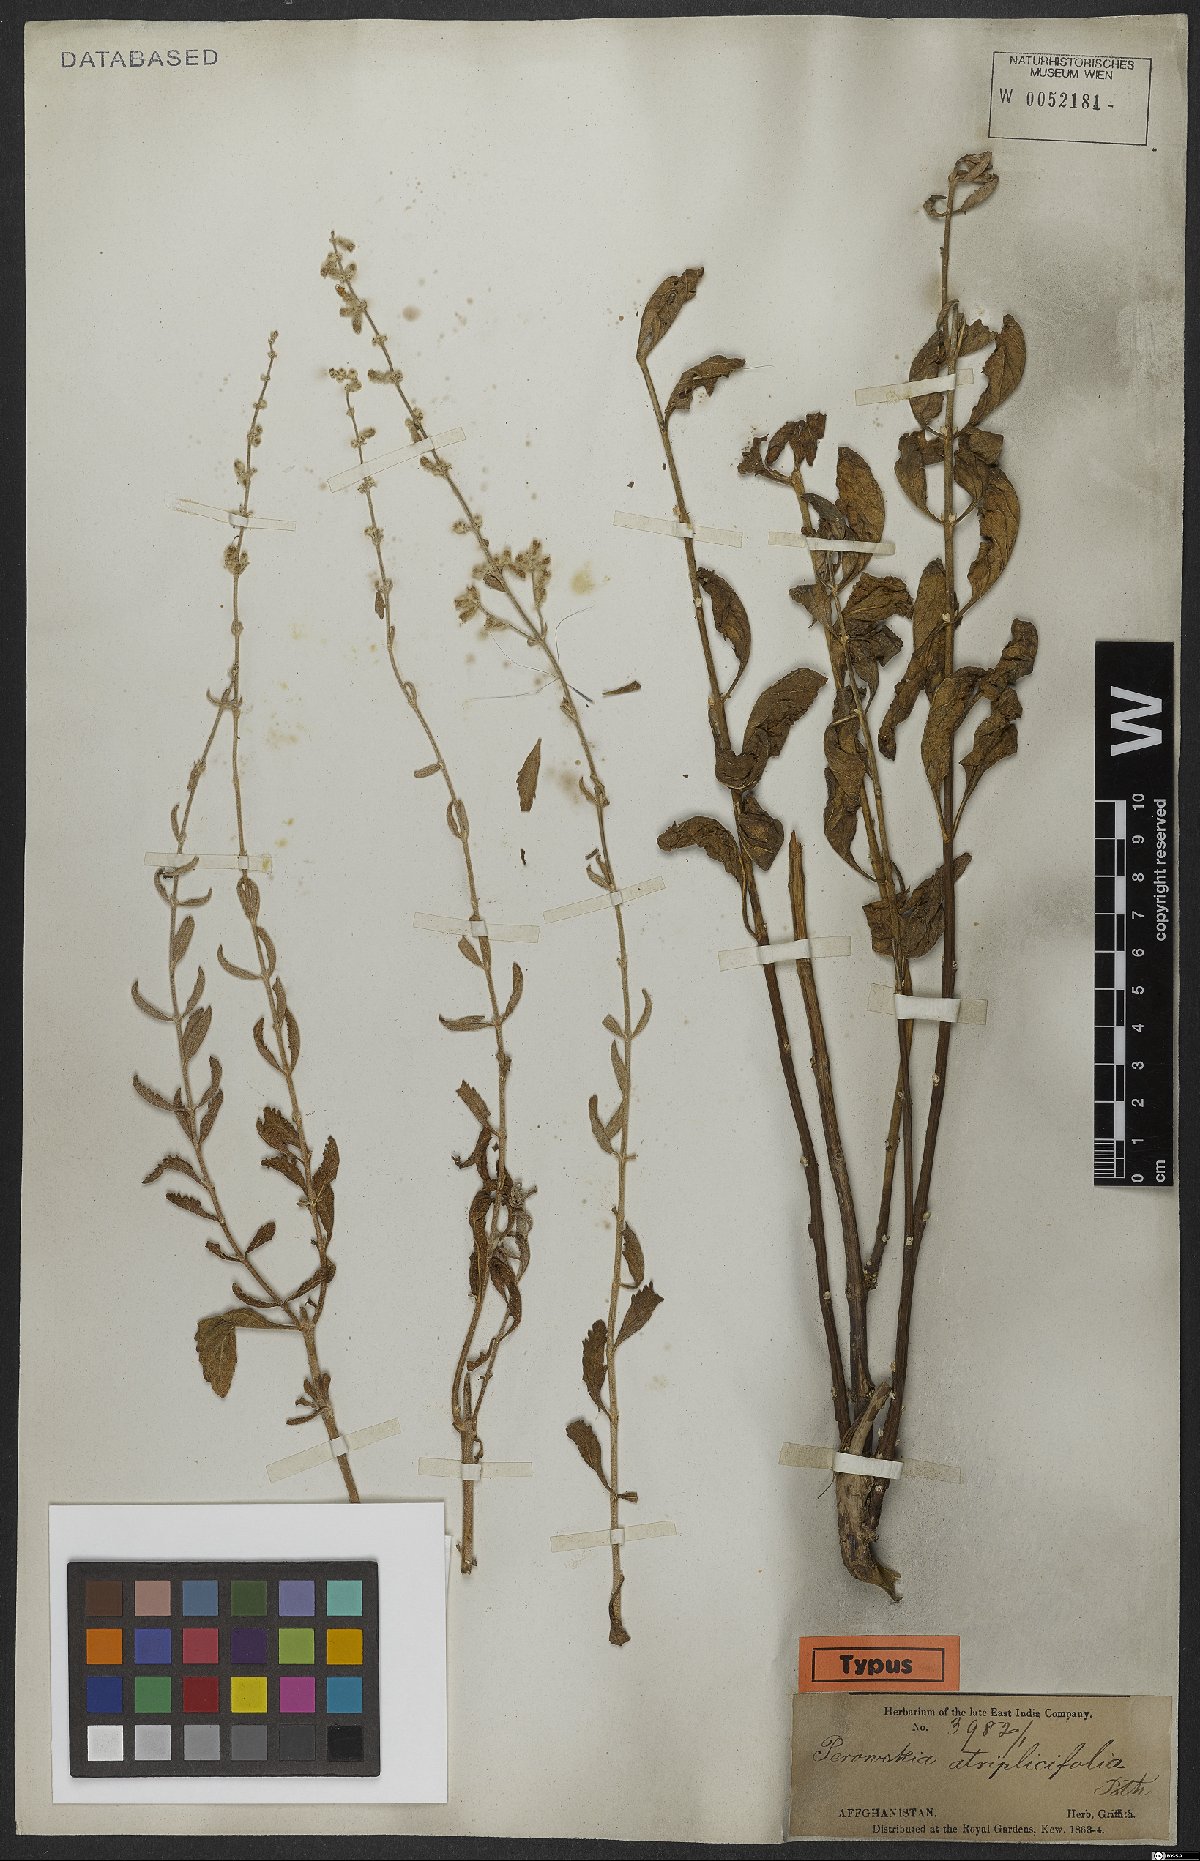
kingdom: Plantae
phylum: Tracheophyta
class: Magnoliopsida
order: Lamiales
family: Lamiaceae
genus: Salvia
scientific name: Salvia yangii
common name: Russian sage
